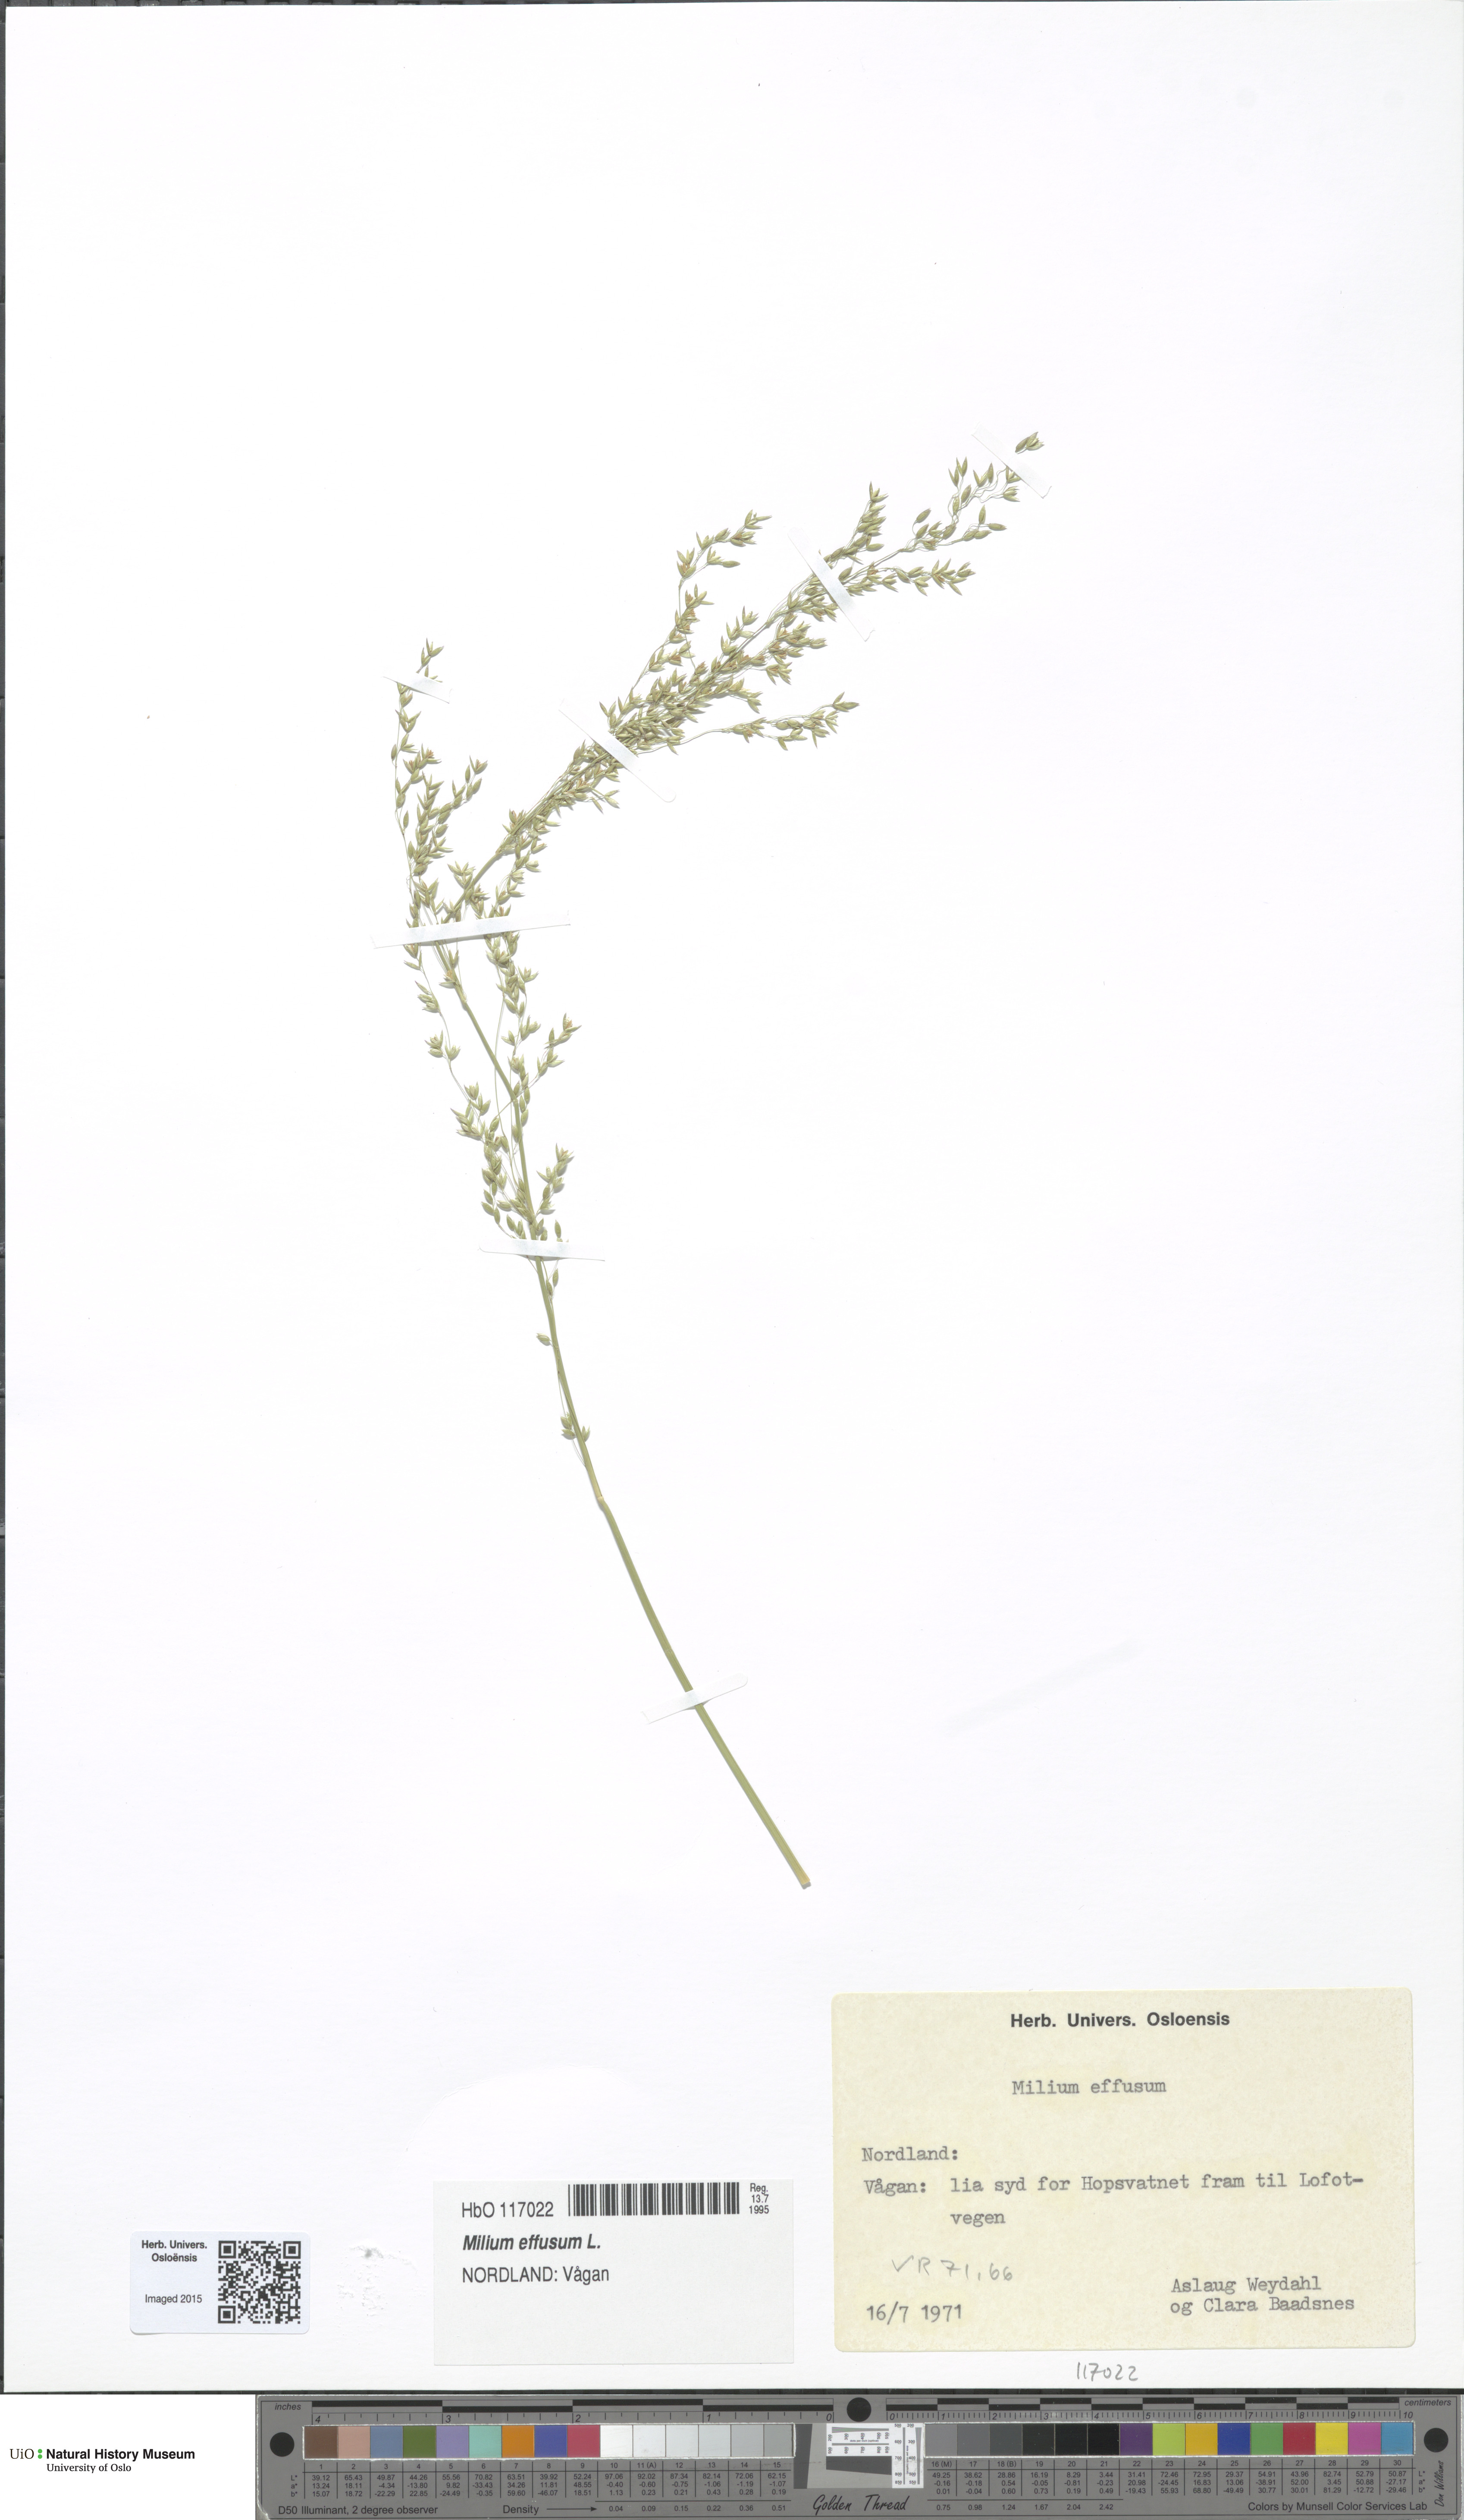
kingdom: Plantae
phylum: Tracheophyta
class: Liliopsida
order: Poales
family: Poaceae
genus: Milium
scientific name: Milium effusum
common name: Wood millet
